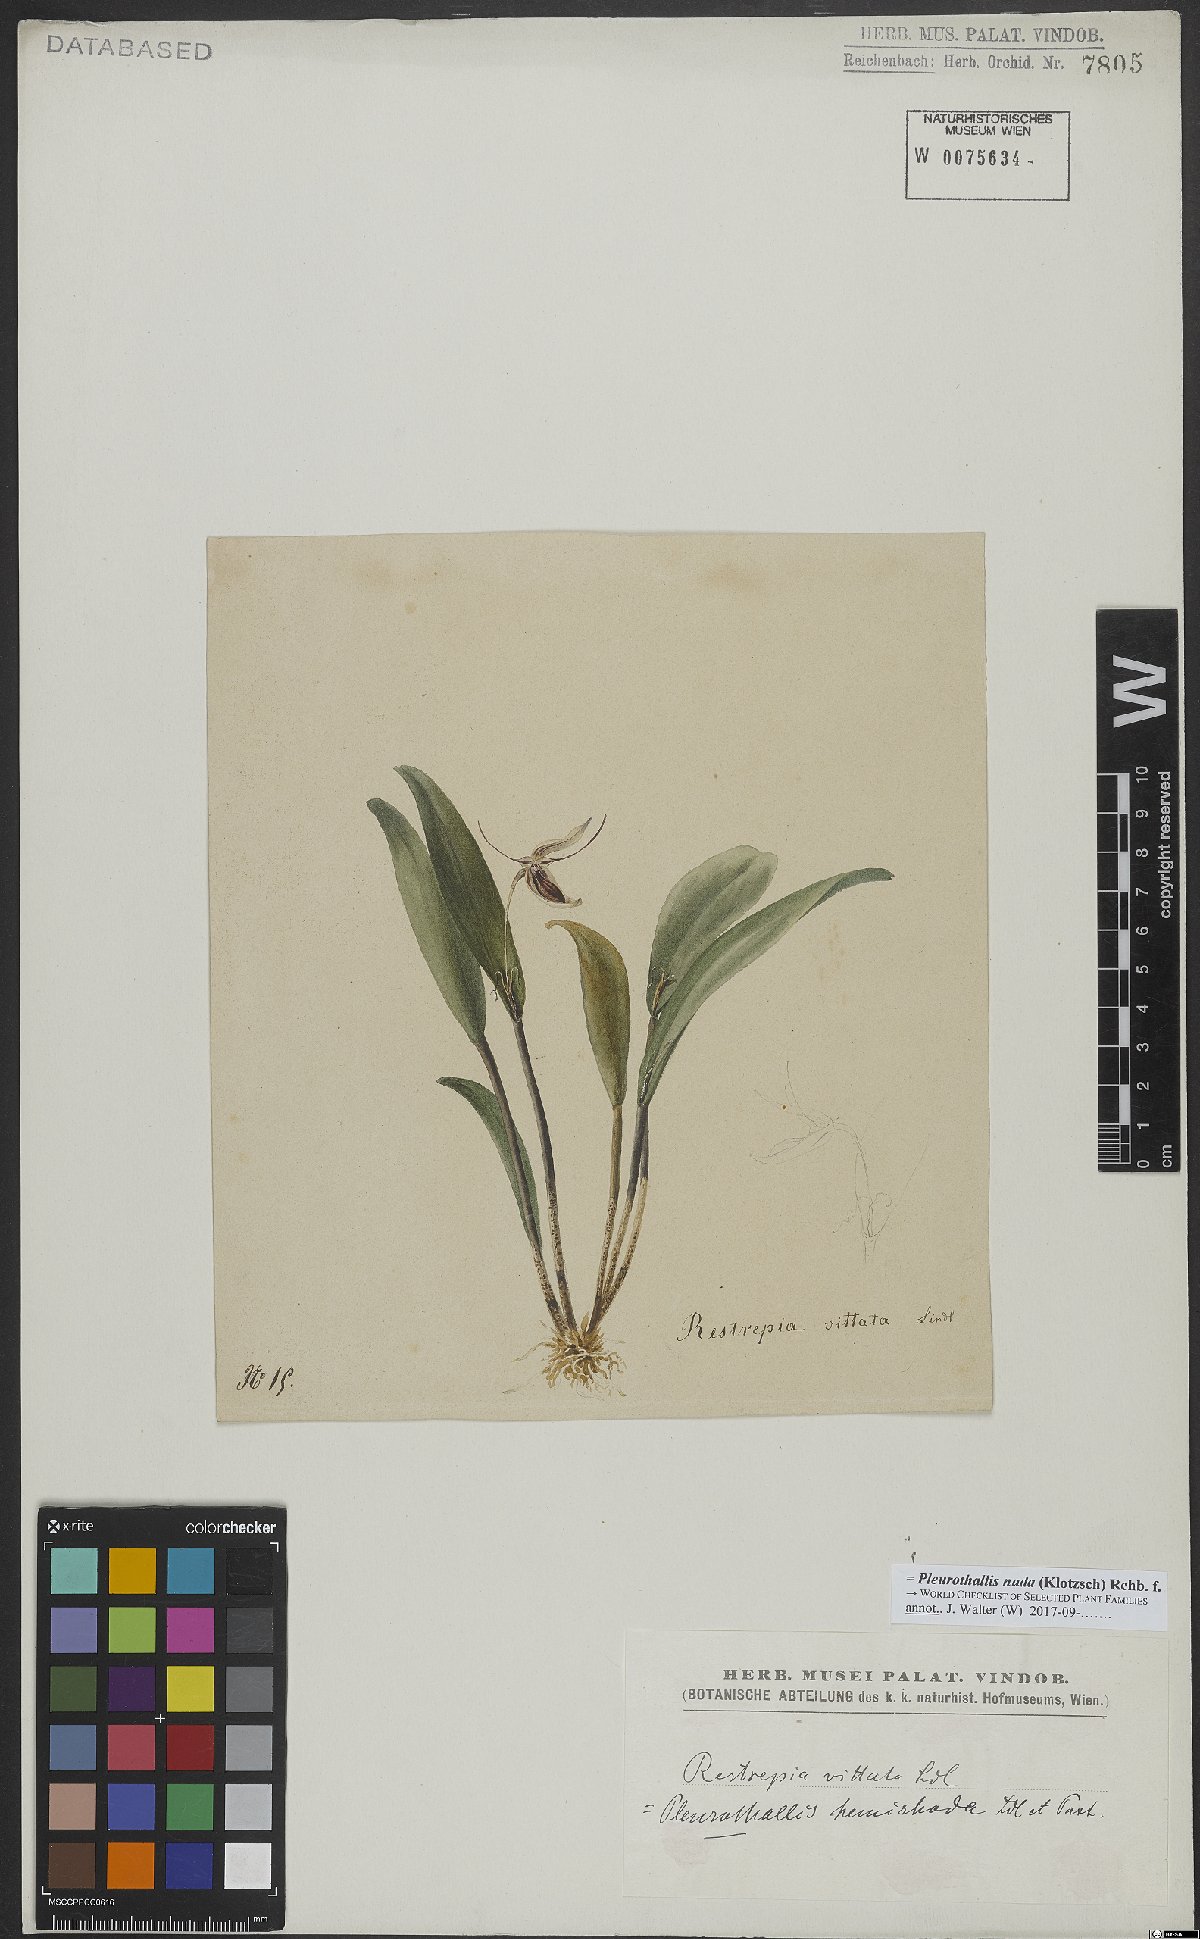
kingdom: Plantae
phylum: Tracheophyta
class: Liliopsida
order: Asparagales
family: Orchidaceae
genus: Pleurothallis
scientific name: Pleurothallis nuda
